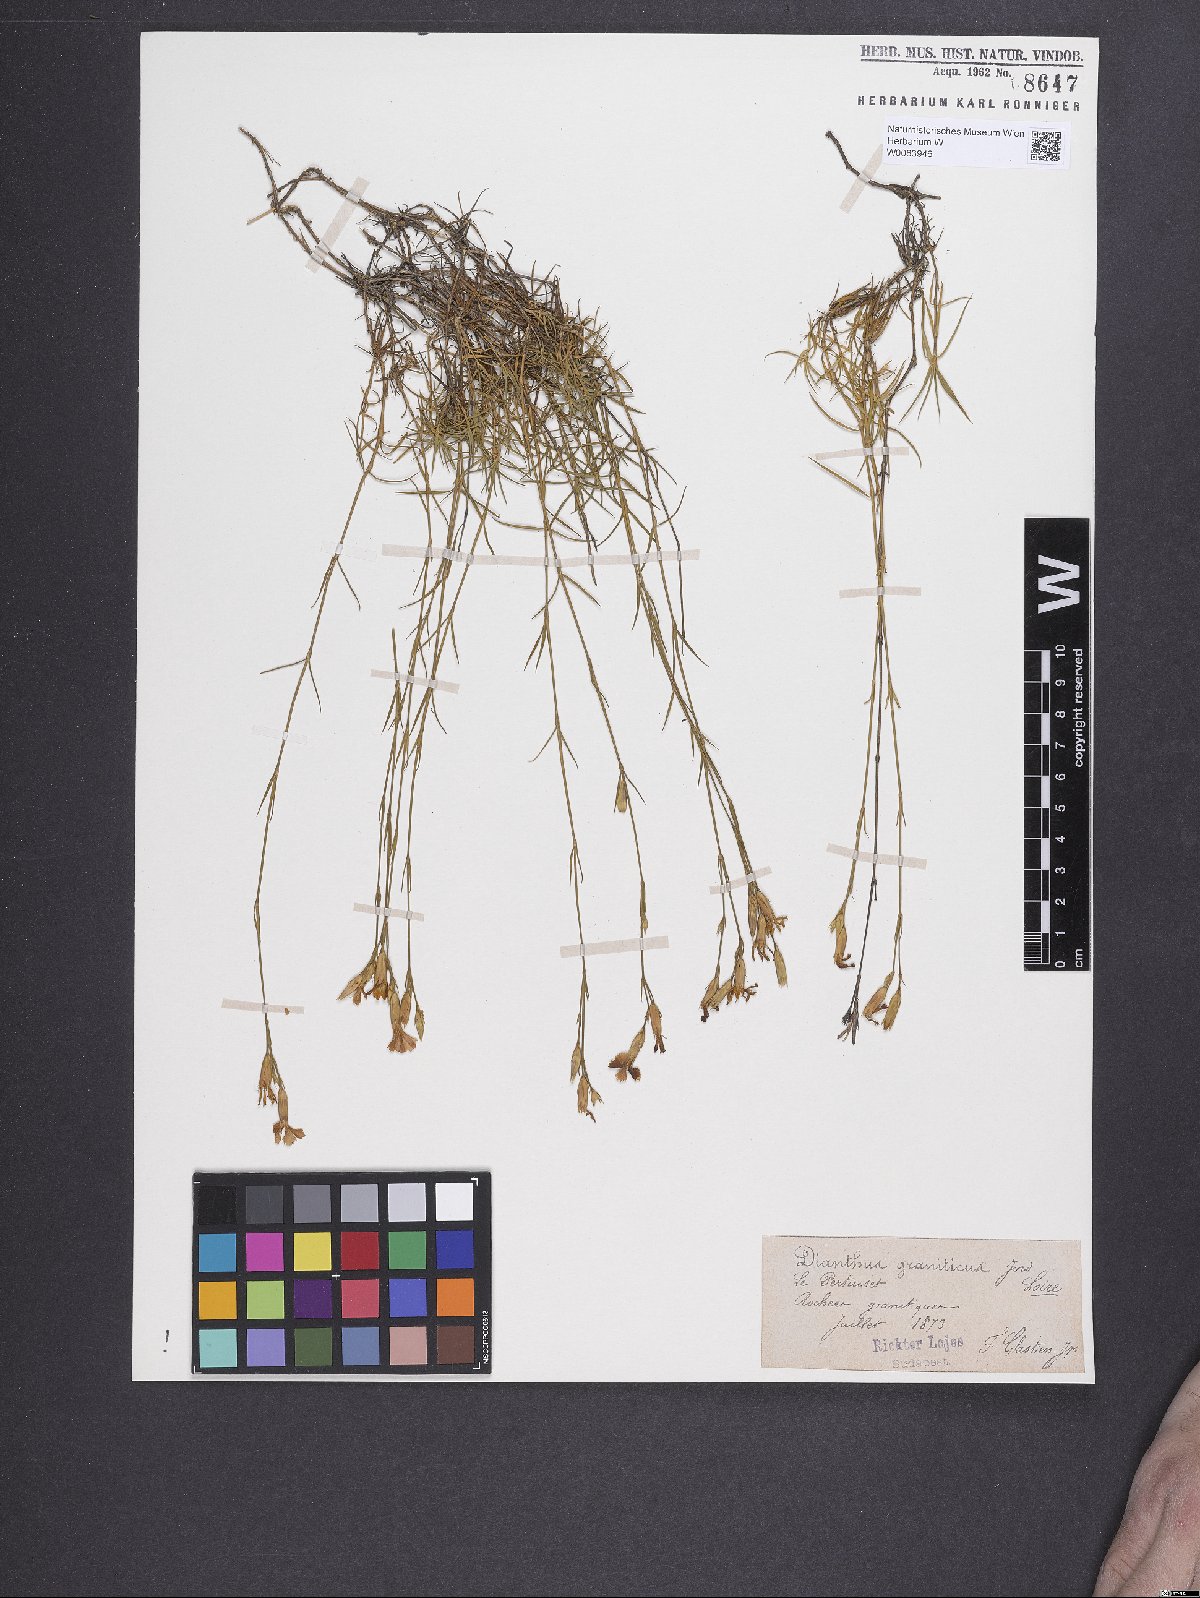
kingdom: Plantae
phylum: Tracheophyta
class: Magnoliopsida
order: Caryophyllales
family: Caryophyllaceae
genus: Dianthus
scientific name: Dianthus graniticus
